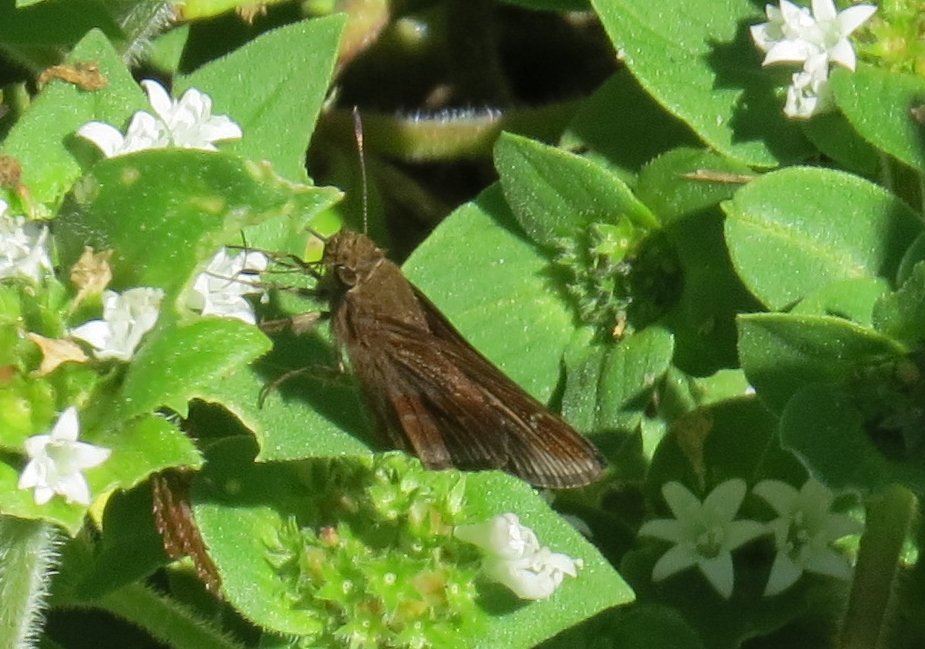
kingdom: Animalia
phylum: Arthropoda
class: Insecta
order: Lepidoptera
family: Hesperiidae
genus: Lerema
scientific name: Lerema accius
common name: Clouded Skipper
